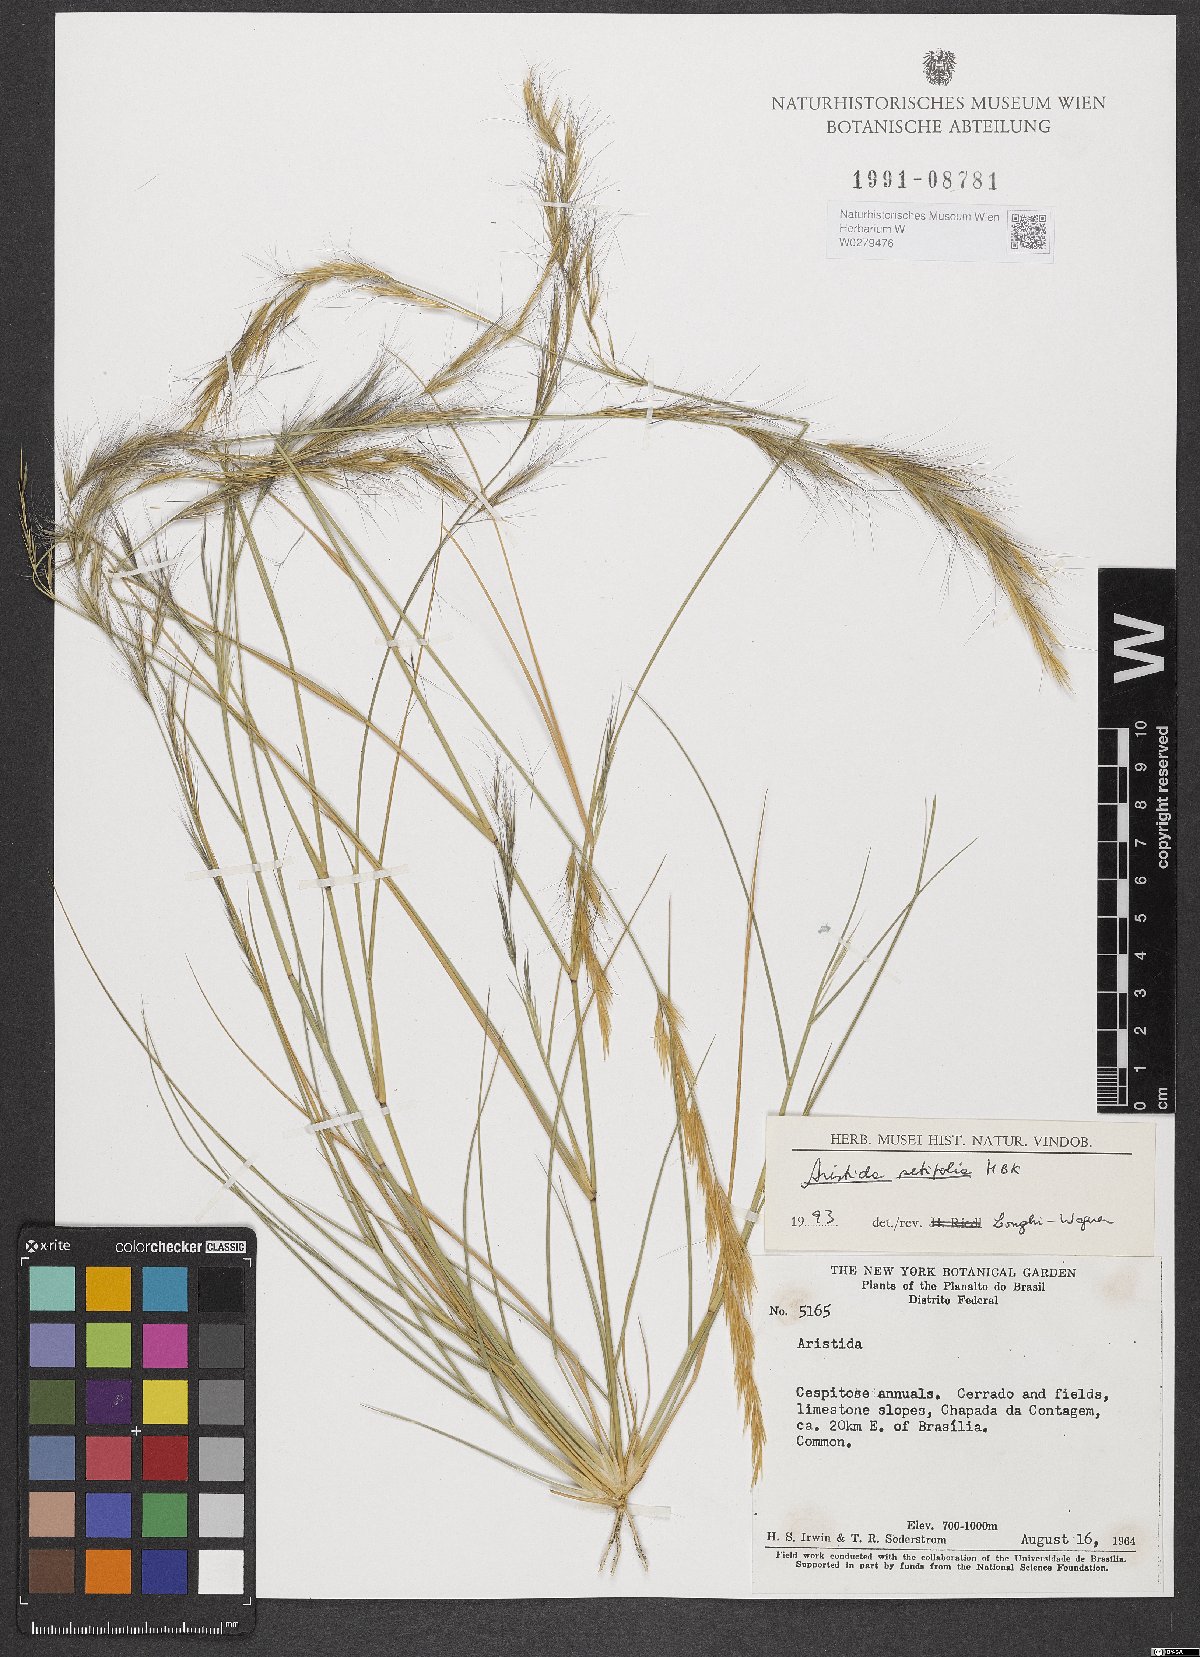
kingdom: Plantae
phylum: Tracheophyta
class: Liliopsida
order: Poales
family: Poaceae
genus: Aristida
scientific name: Aristida setifolia
